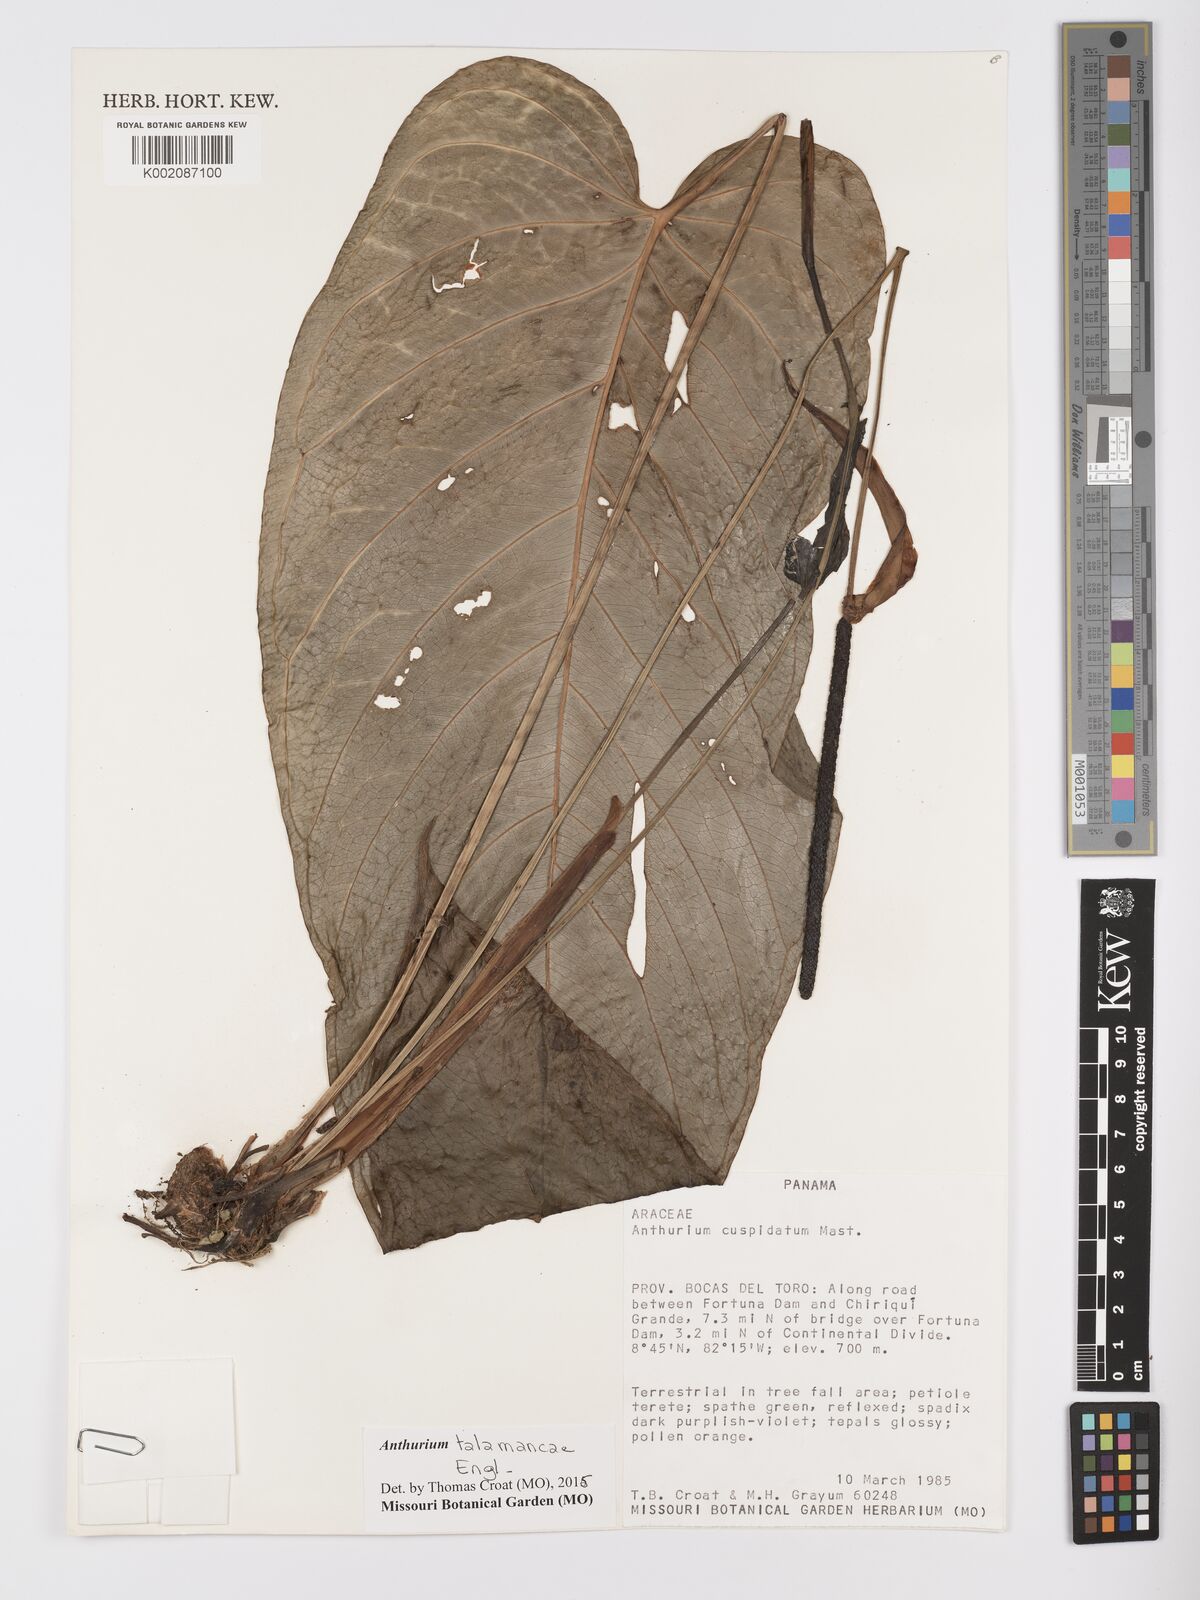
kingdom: Plantae
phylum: Tracheophyta
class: Liliopsida
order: Alismatales
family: Araceae
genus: Anthurium
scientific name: Anthurium talamancae
